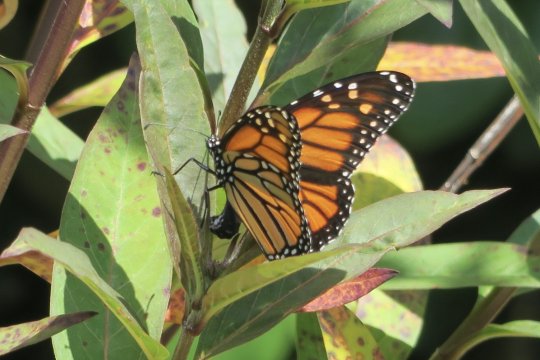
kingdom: Animalia
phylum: Arthropoda
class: Insecta
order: Lepidoptera
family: Nymphalidae
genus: Danaus
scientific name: Danaus plexippus
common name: Monarch
